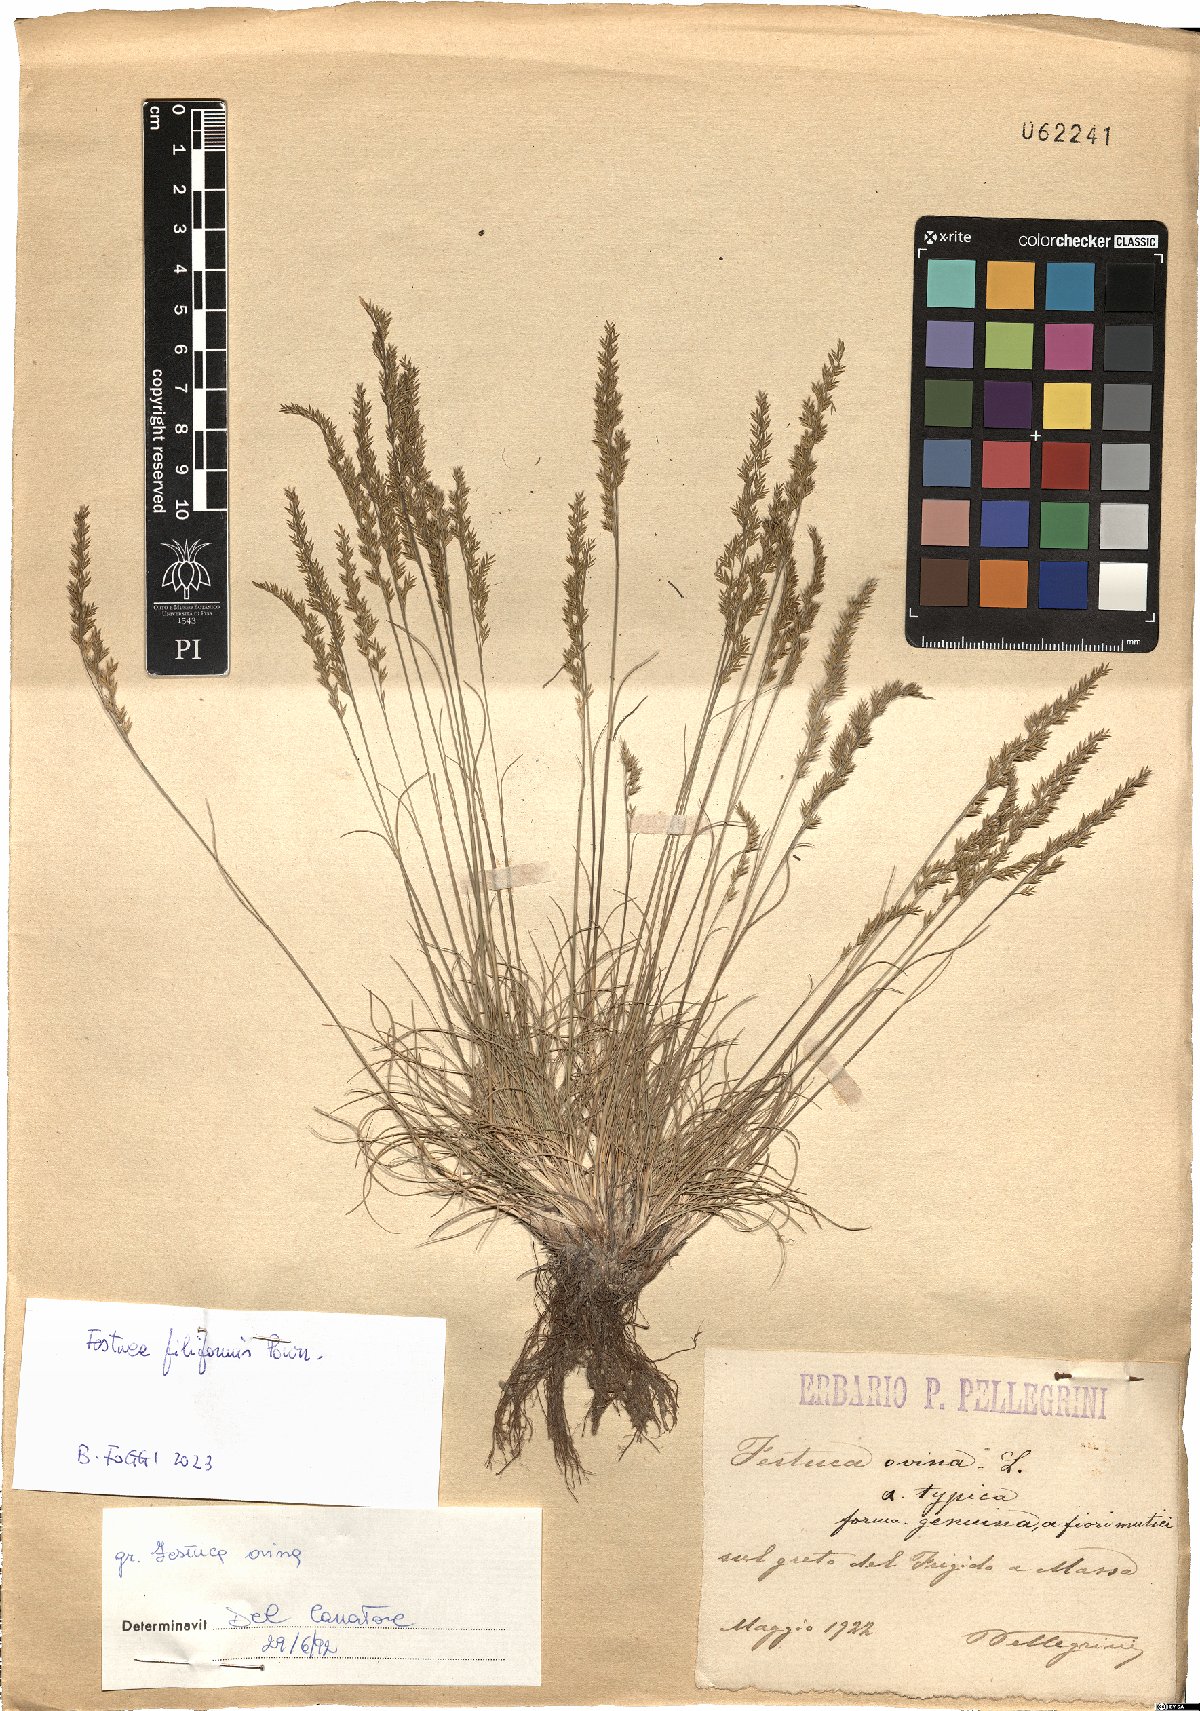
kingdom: Plantae
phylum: Tracheophyta
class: Liliopsida
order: Poales
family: Poaceae
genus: Festuca
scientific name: Festuca filiformis
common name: Fine-leaved sheep's-fescue
